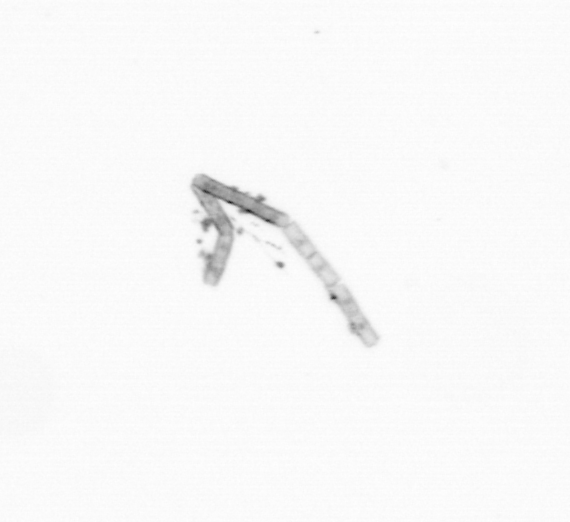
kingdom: Chromista
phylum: Ochrophyta
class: Bacillariophyceae
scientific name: Bacillariophyceae
